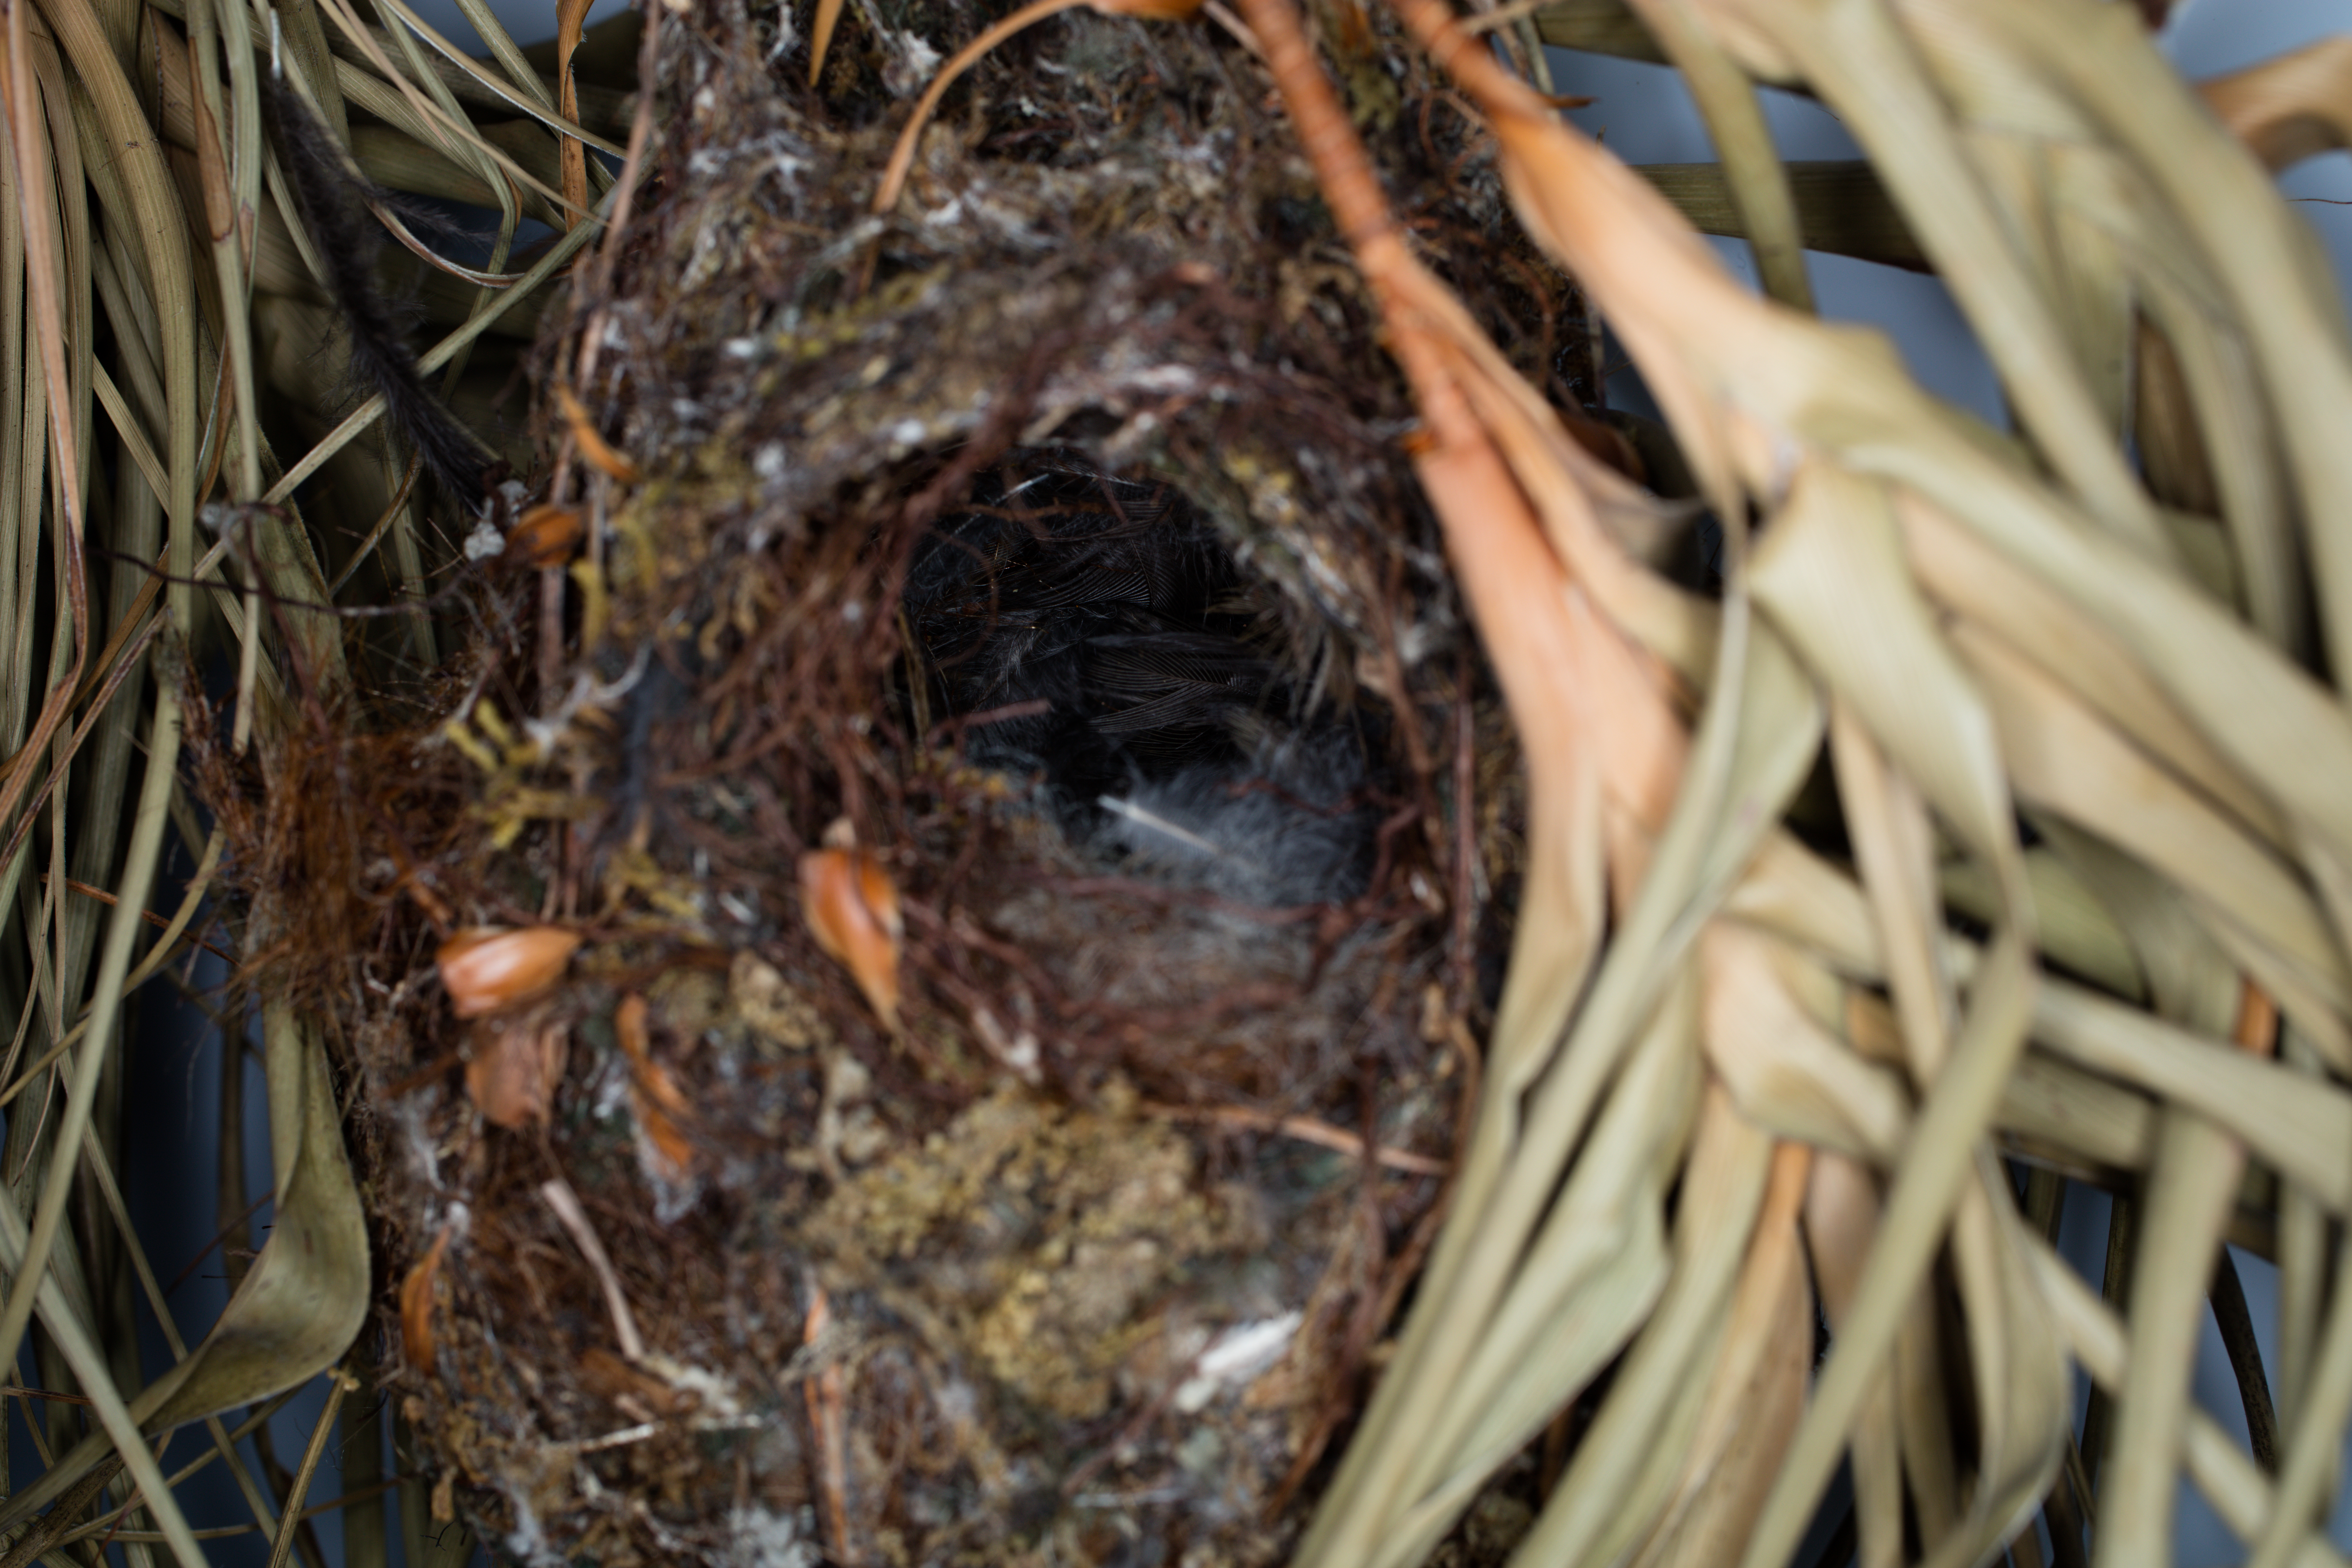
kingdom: Animalia
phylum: Chordata
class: Aves
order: Passeriformes
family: Acanthizidae
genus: Gerygone
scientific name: Gerygone albofrontata
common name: Chatham gerygone
